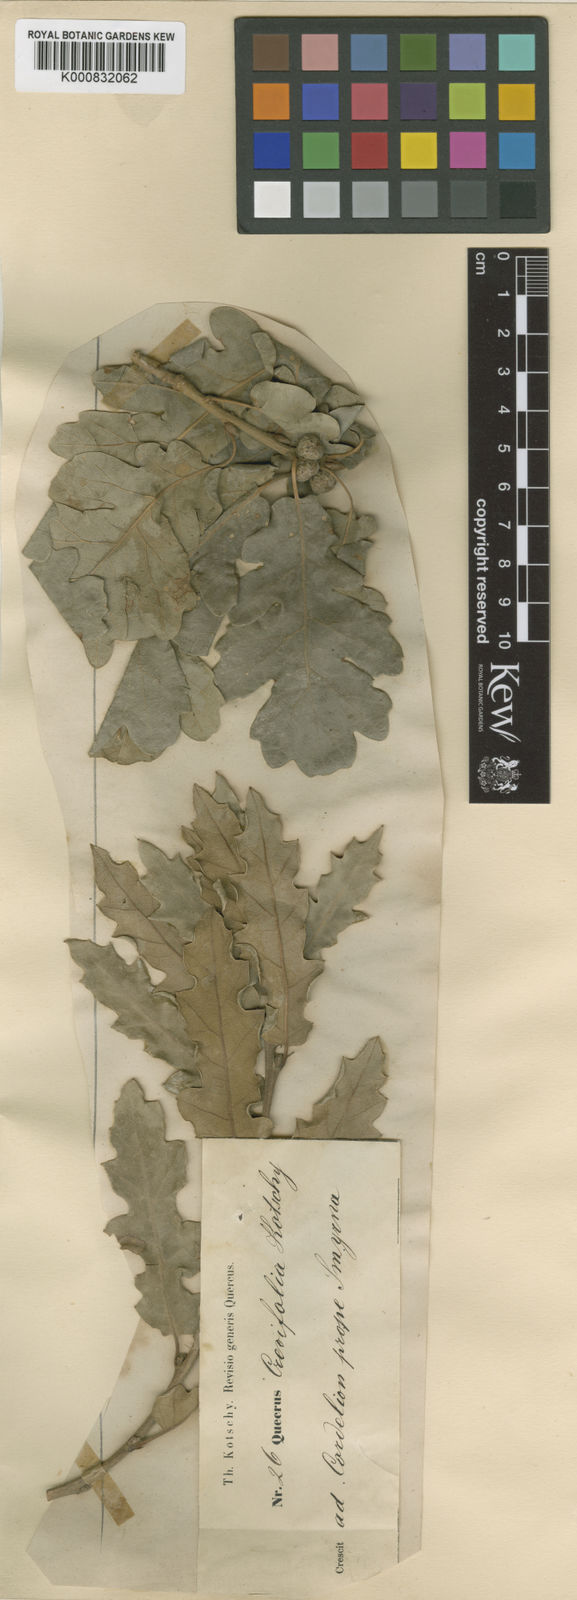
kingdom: Plantae
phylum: Tracheophyta
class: Magnoliopsida
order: Fagales
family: Fagaceae
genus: Quercus
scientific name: Quercus pubescens
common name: Downy oak
